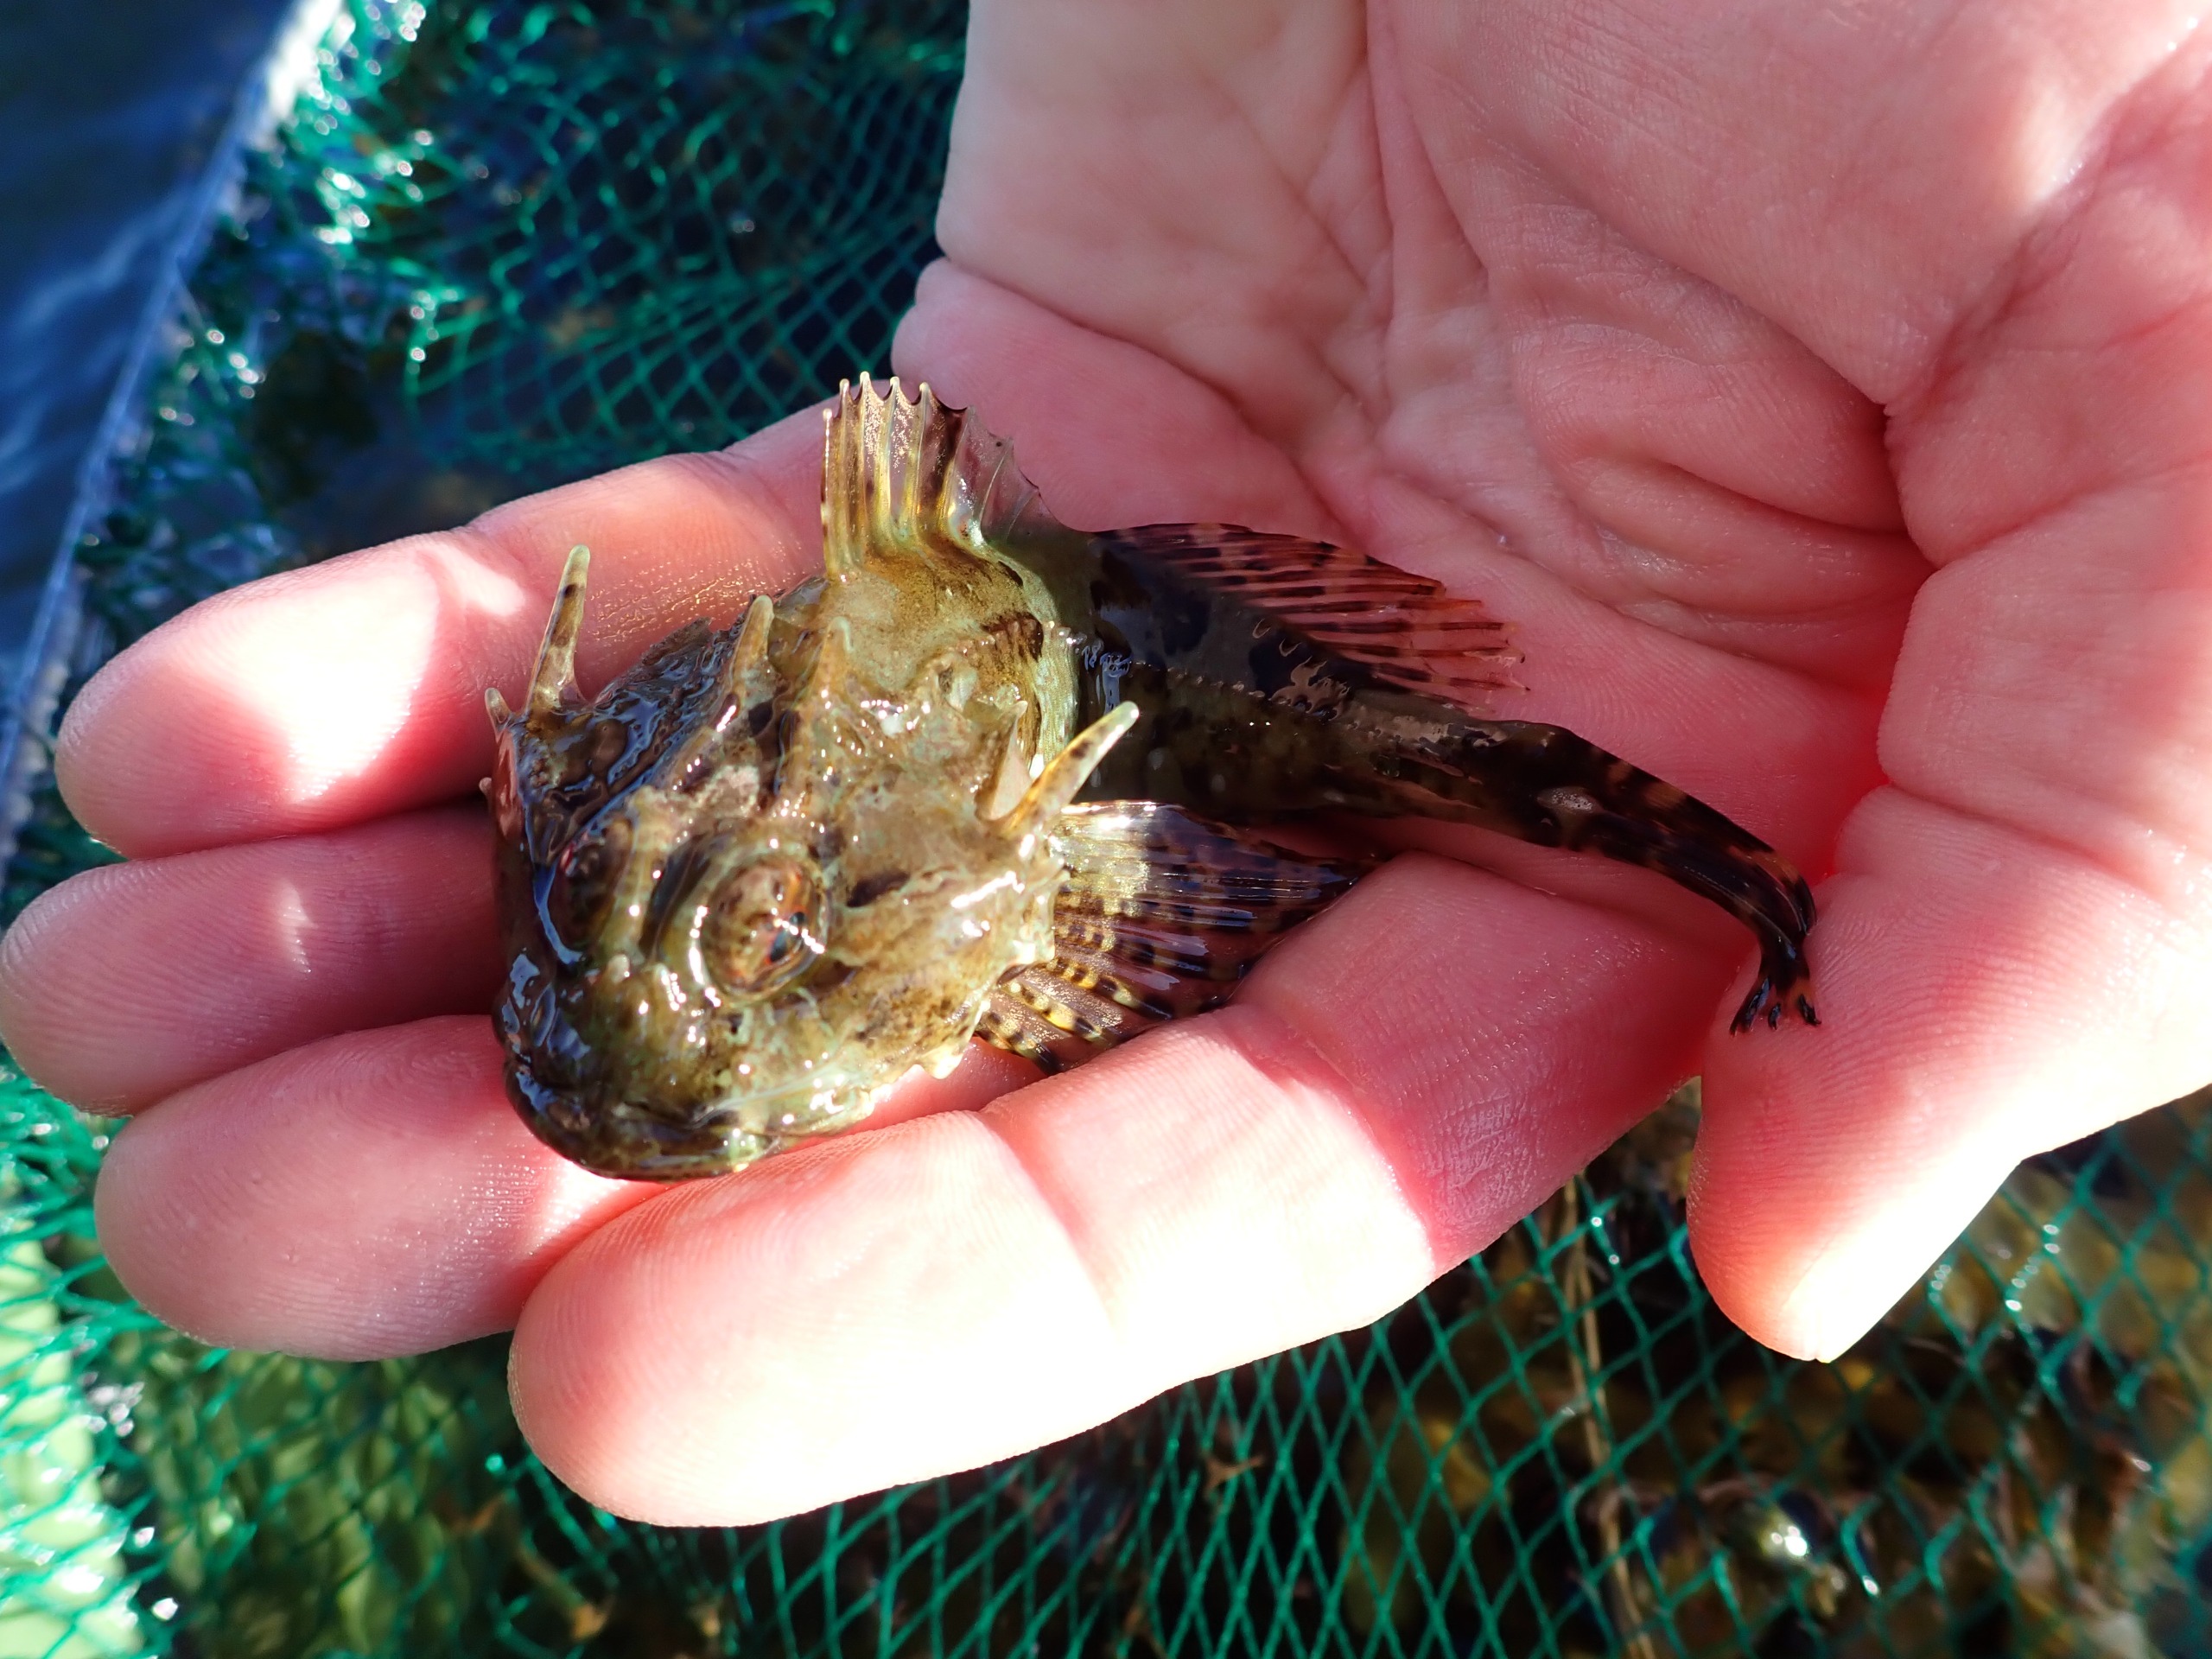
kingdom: Animalia
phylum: Chordata
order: Scorpaeniformes
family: Cottidae
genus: Taurulus
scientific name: Taurulus bubalis
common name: Langtornet ulk
